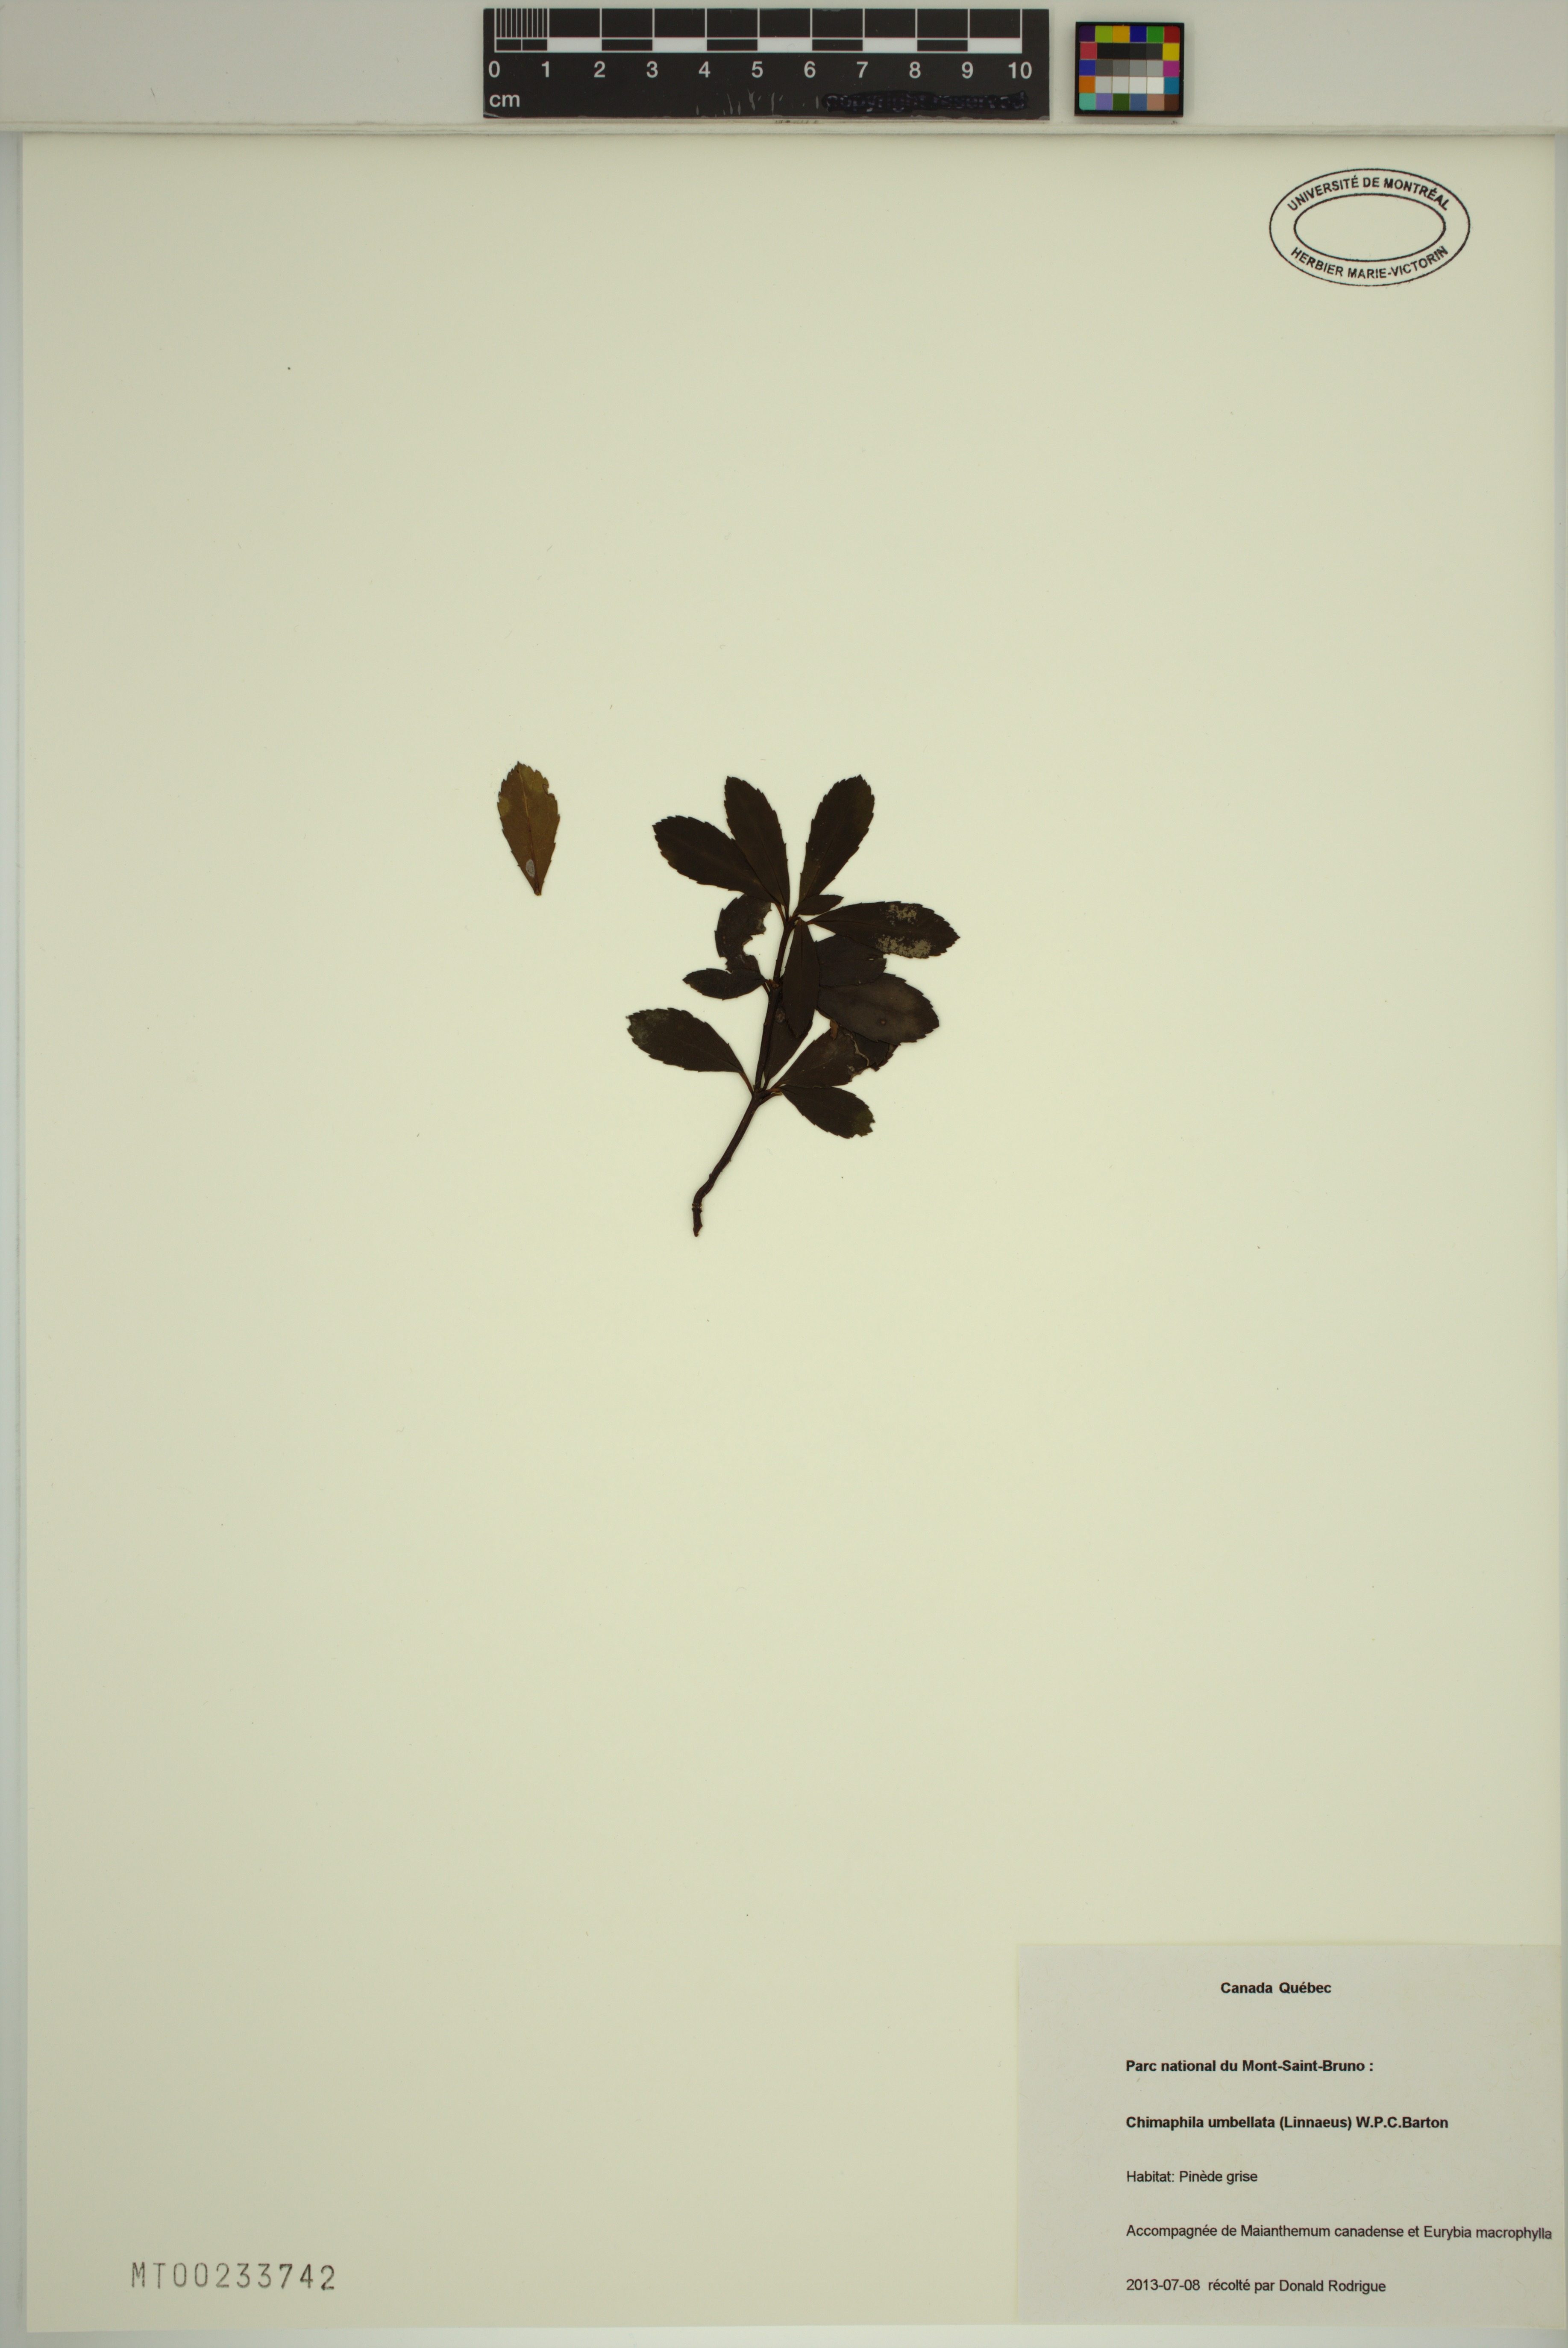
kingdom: Plantae
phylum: Tracheophyta
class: Magnoliopsida
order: Ericales
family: Ericaceae
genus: Chimaphila
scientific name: Chimaphila umbellata
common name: Pipsissewa
